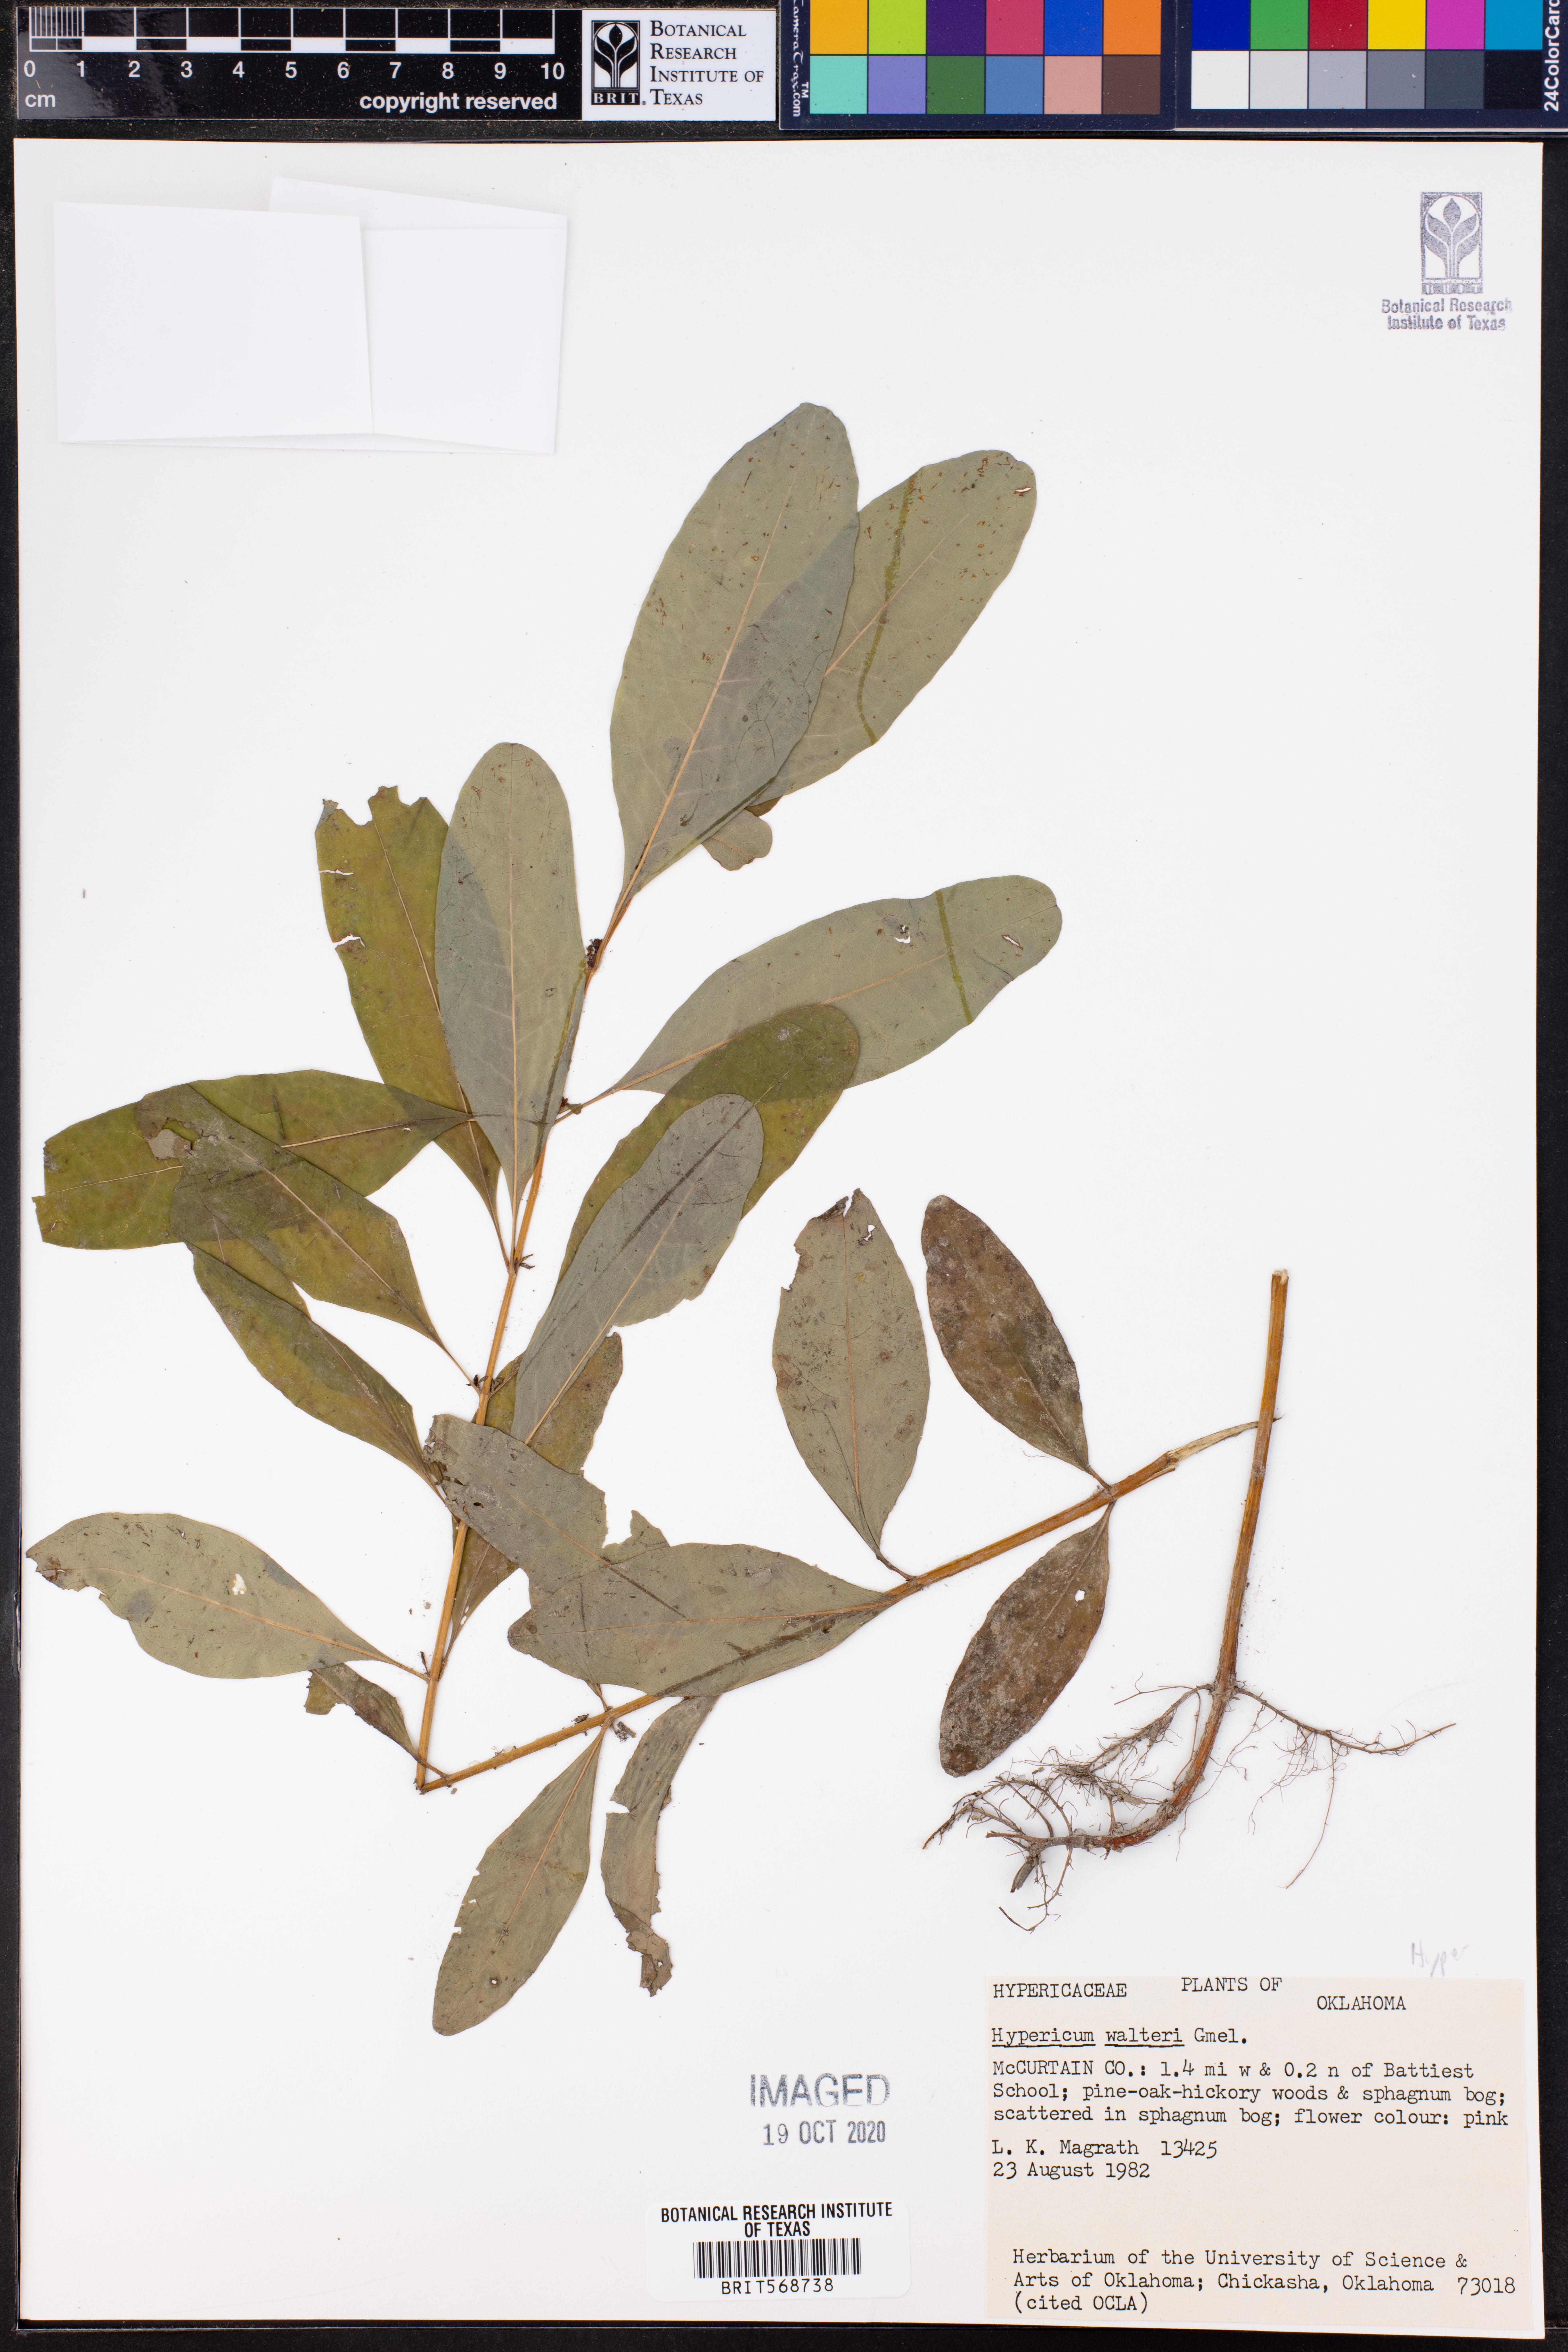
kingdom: Plantae
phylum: Tracheophyta
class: Magnoliopsida
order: Malpighiales
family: Hypericaceae
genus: Triadenum
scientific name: Triadenum walteri
